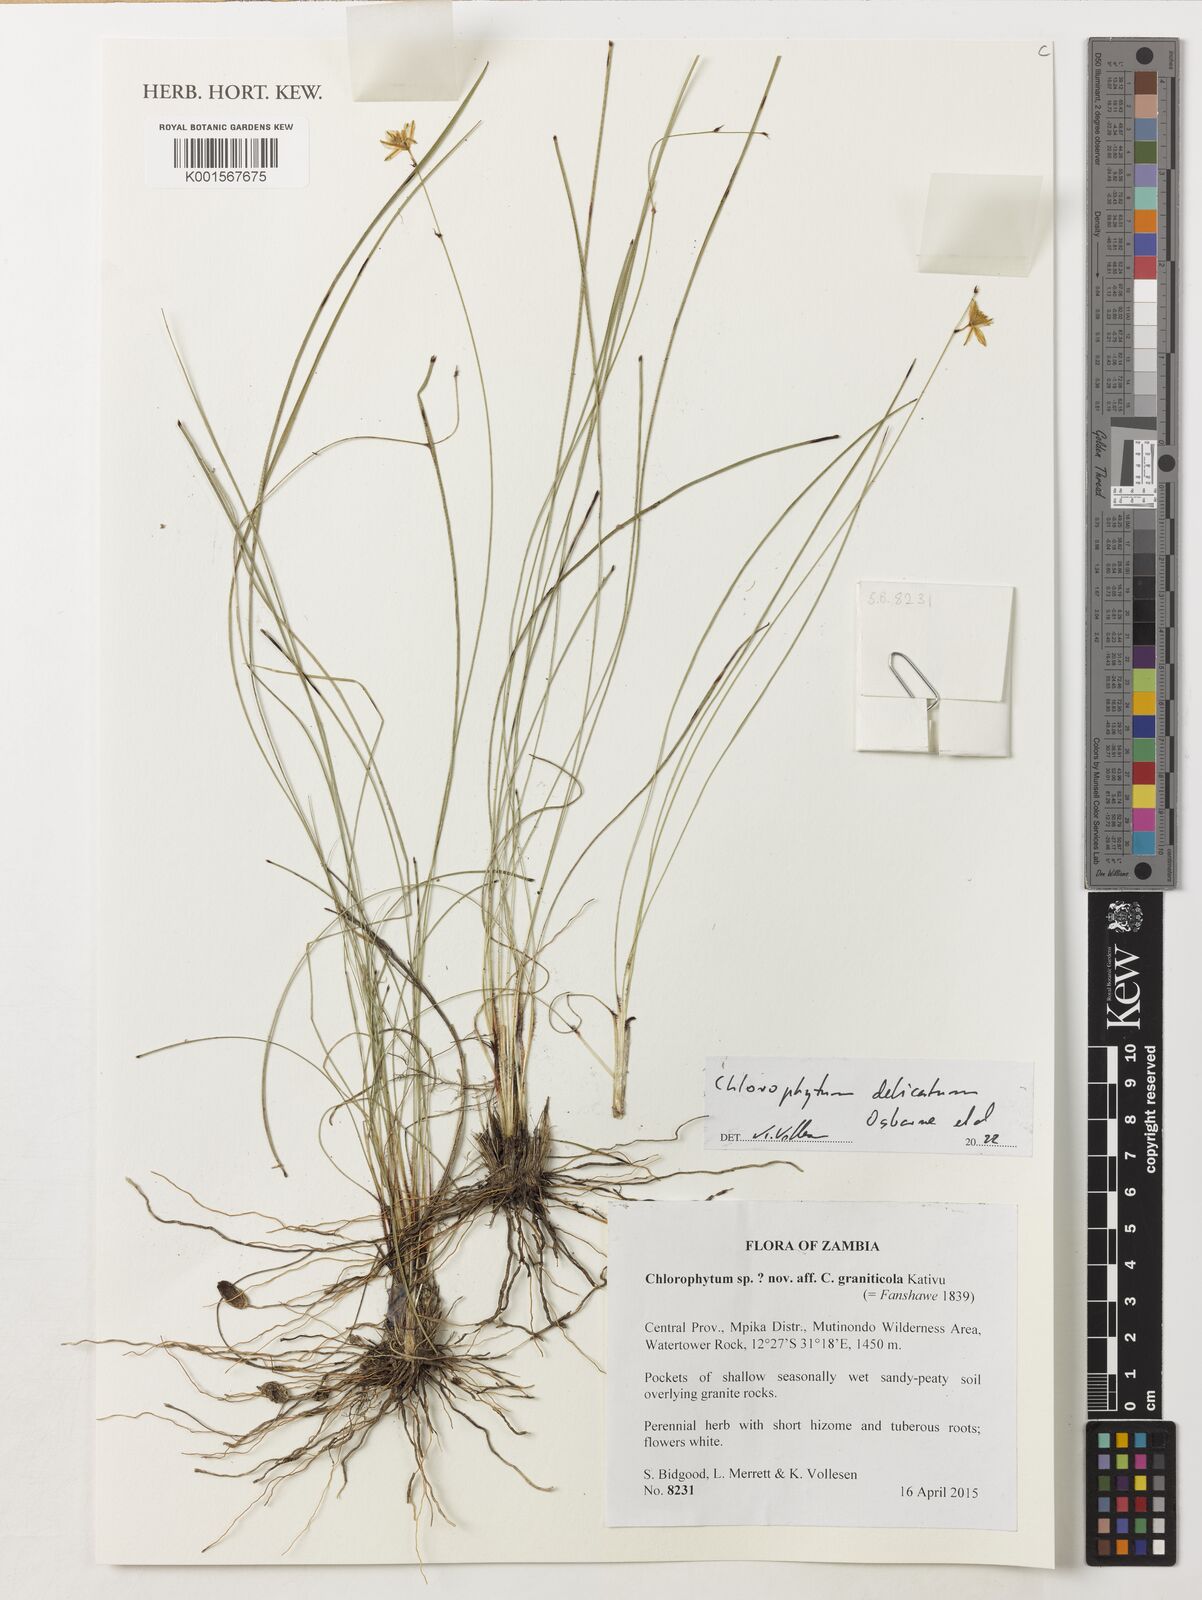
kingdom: Plantae
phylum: Tracheophyta
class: Liliopsida
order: Asparagales
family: Asparagaceae
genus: Chlorophytum
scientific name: Chlorophytum
